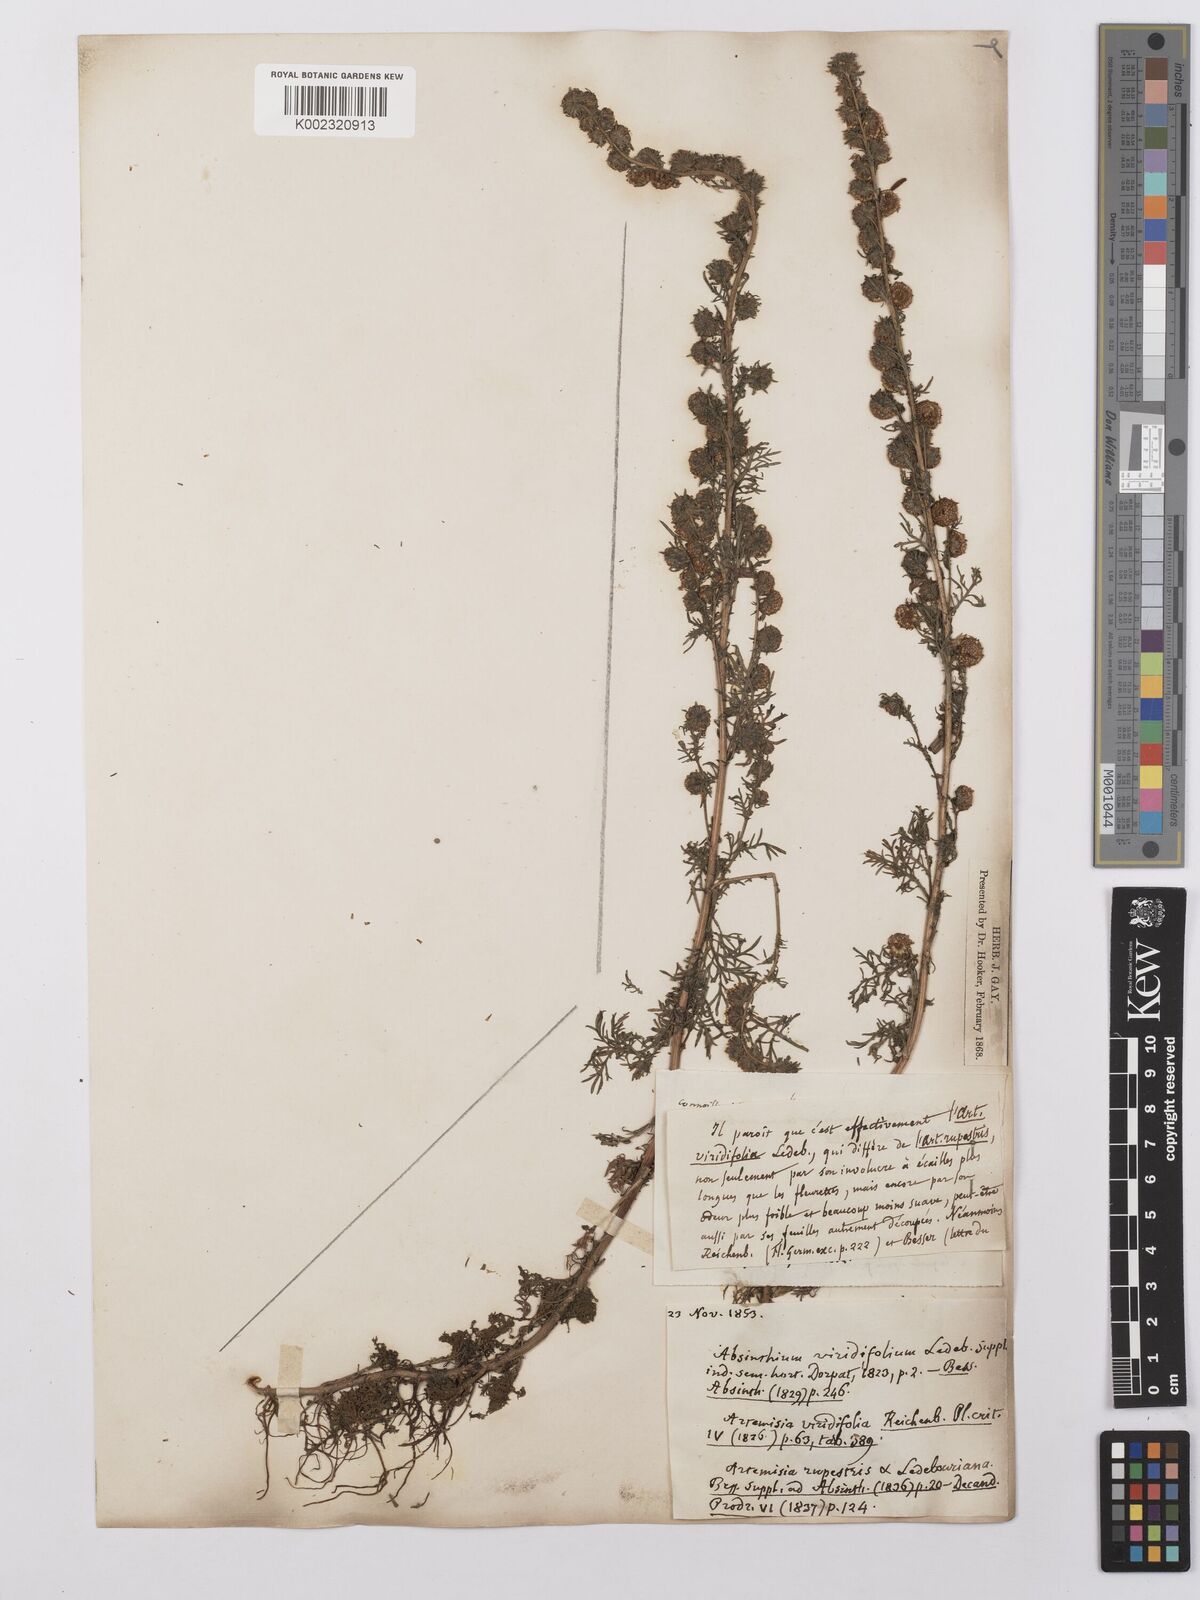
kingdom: Plantae
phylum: Tracheophyta
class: Magnoliopsida
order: Asterales
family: Asteraceae
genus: Artemisia
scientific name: Artemisia rupestris
